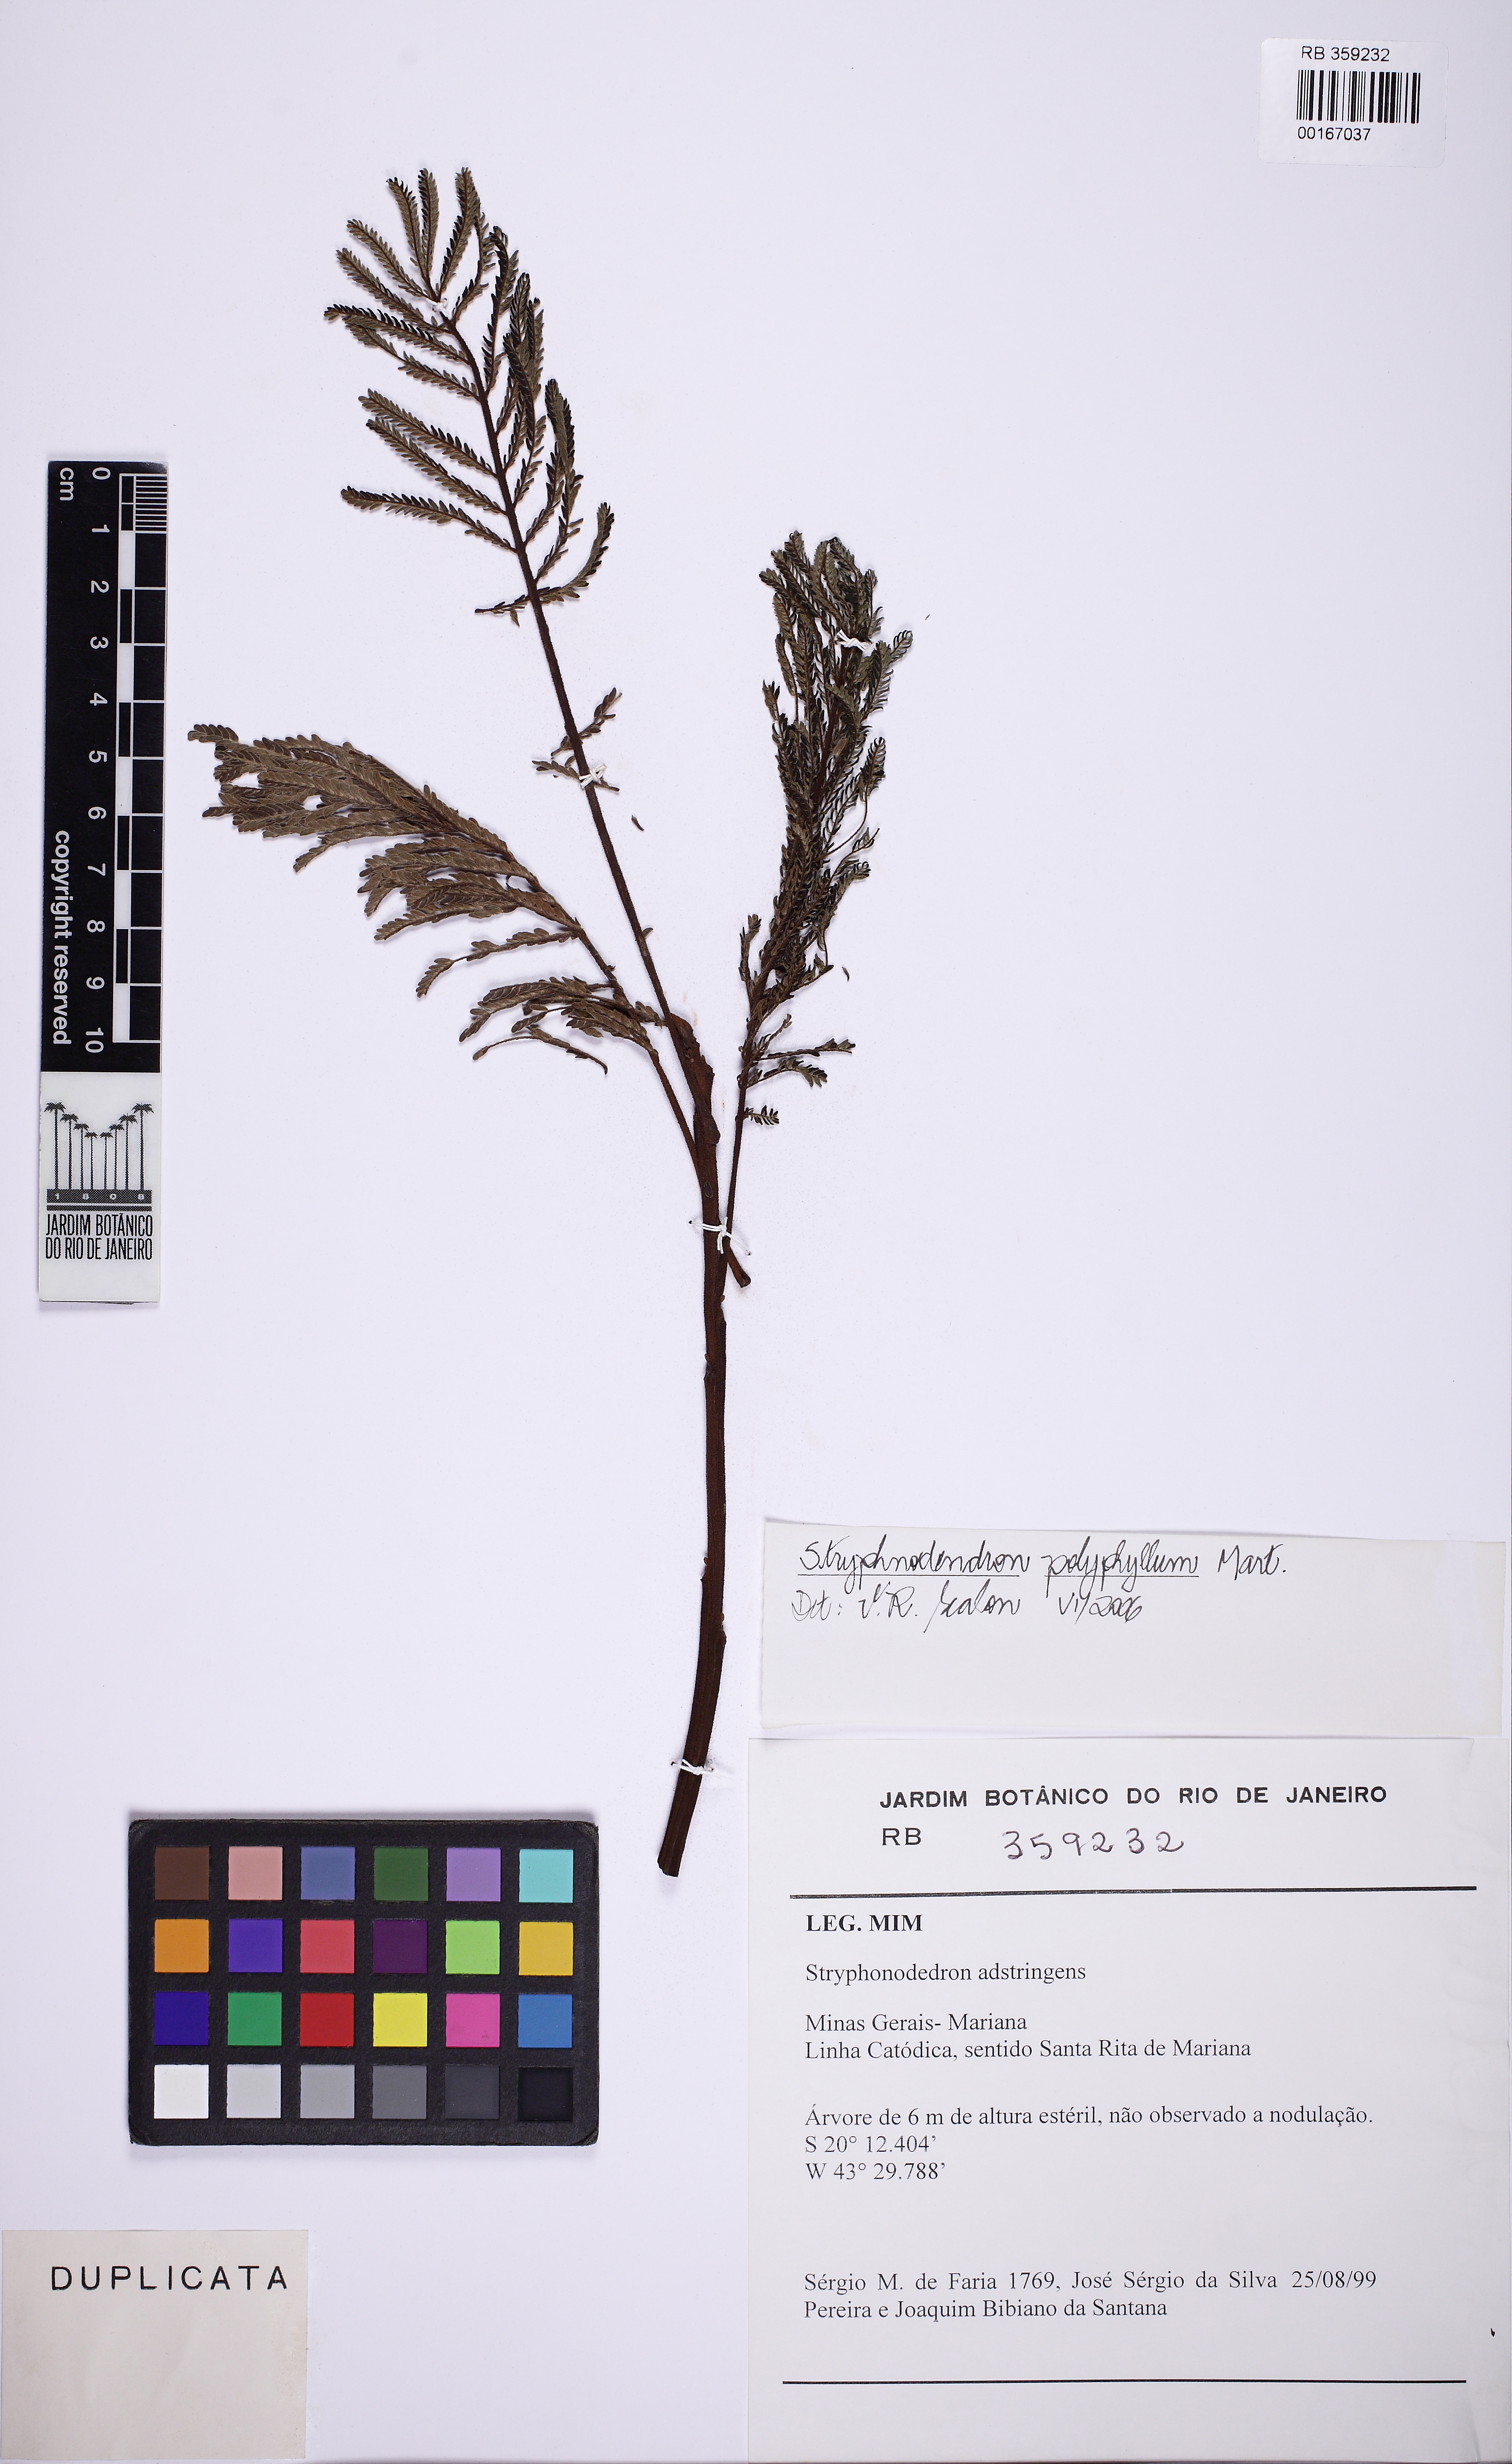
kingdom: Plantae
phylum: Tracheophyta
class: Magnoliopsida
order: Fabales
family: Fabaceae
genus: Stryphnodendron
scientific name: Stryphnodendron polyphyllum
